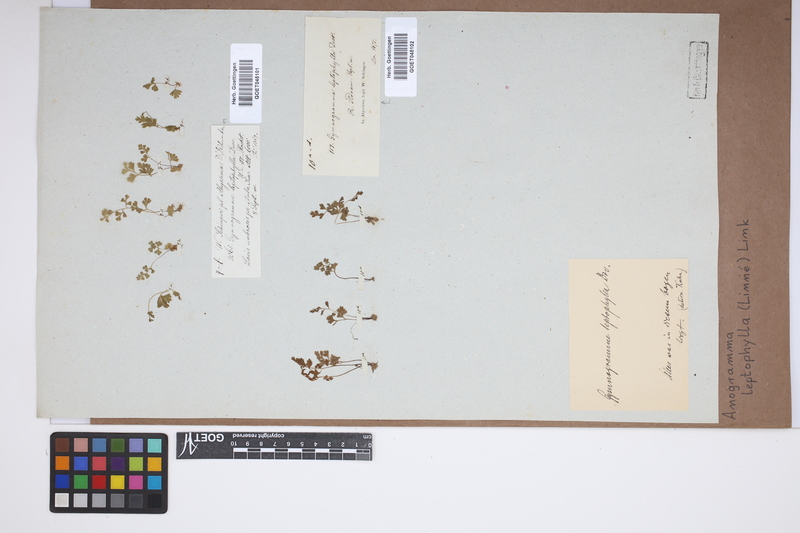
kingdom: Plantae
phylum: Tracheophyta
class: Polypodiopsida
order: Polypodiales
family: Pteridaceae
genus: Anogramma
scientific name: Anogramma leptophylla
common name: Jersey fern
